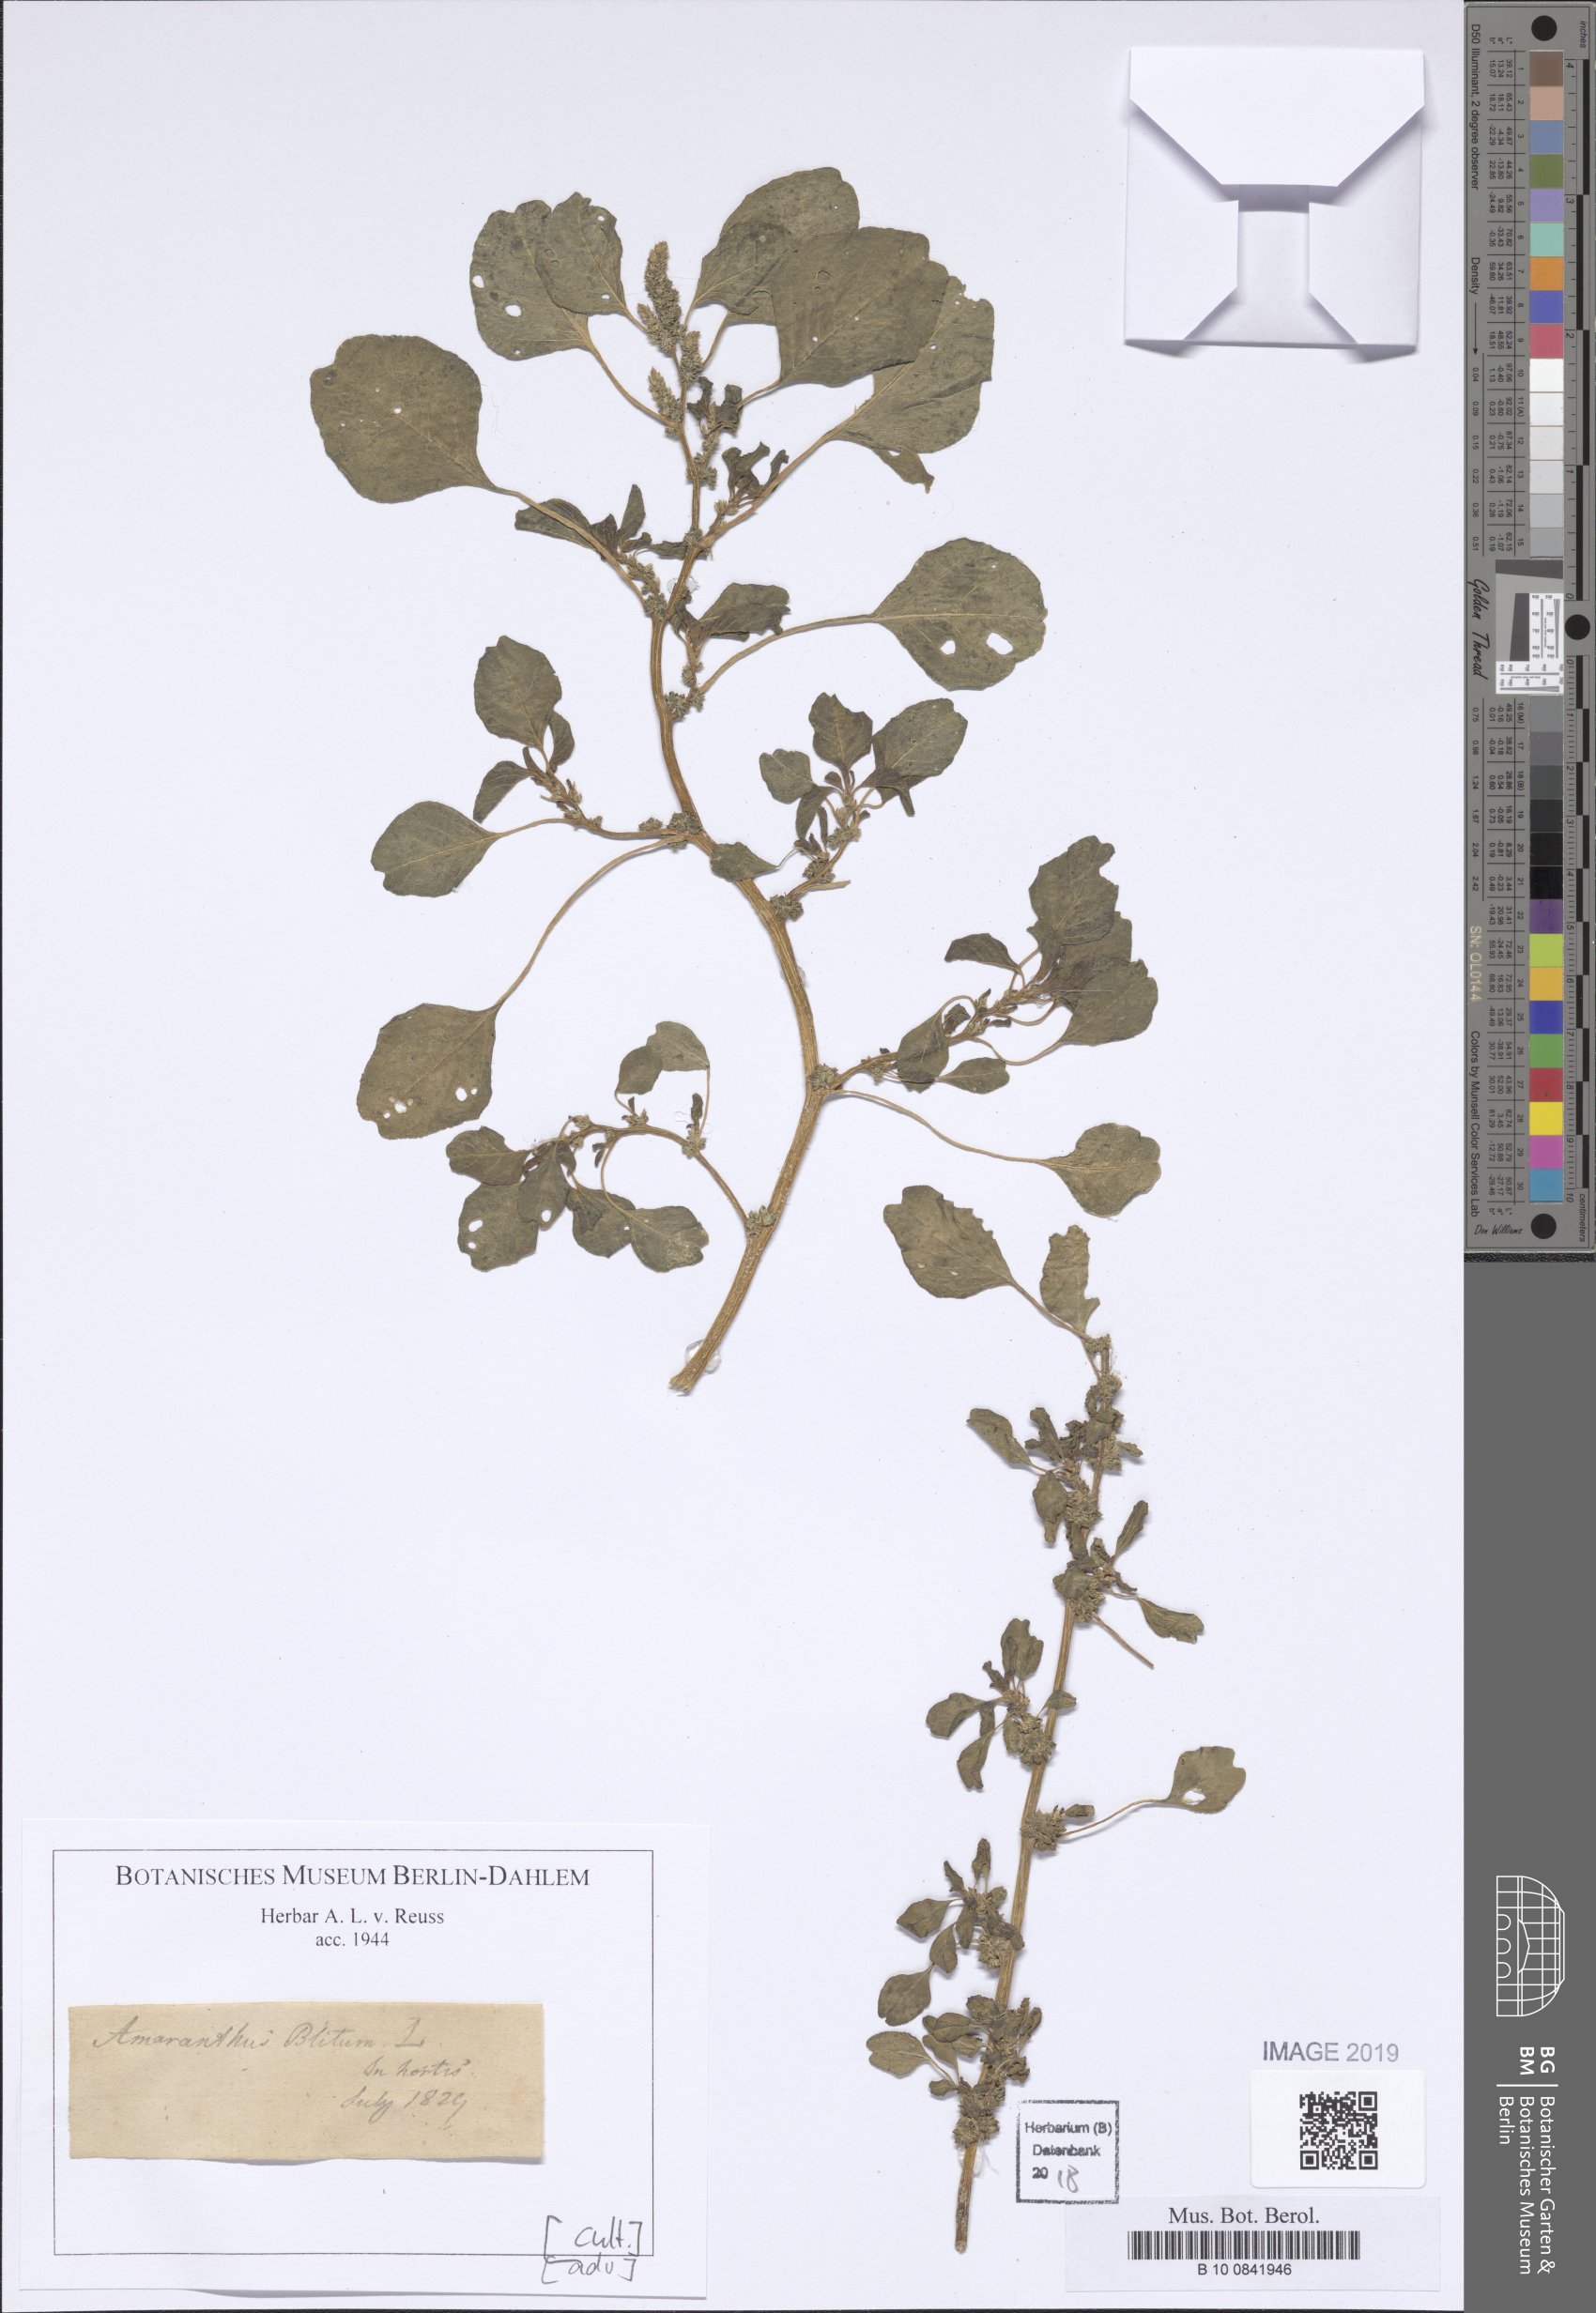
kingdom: Plantae
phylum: Tracheophyta
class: Magnoliopsida
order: Caryophyllales
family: Amaranthaceae
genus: Amaranthus
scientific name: Amaranthus blitum
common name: Purple amaranth
